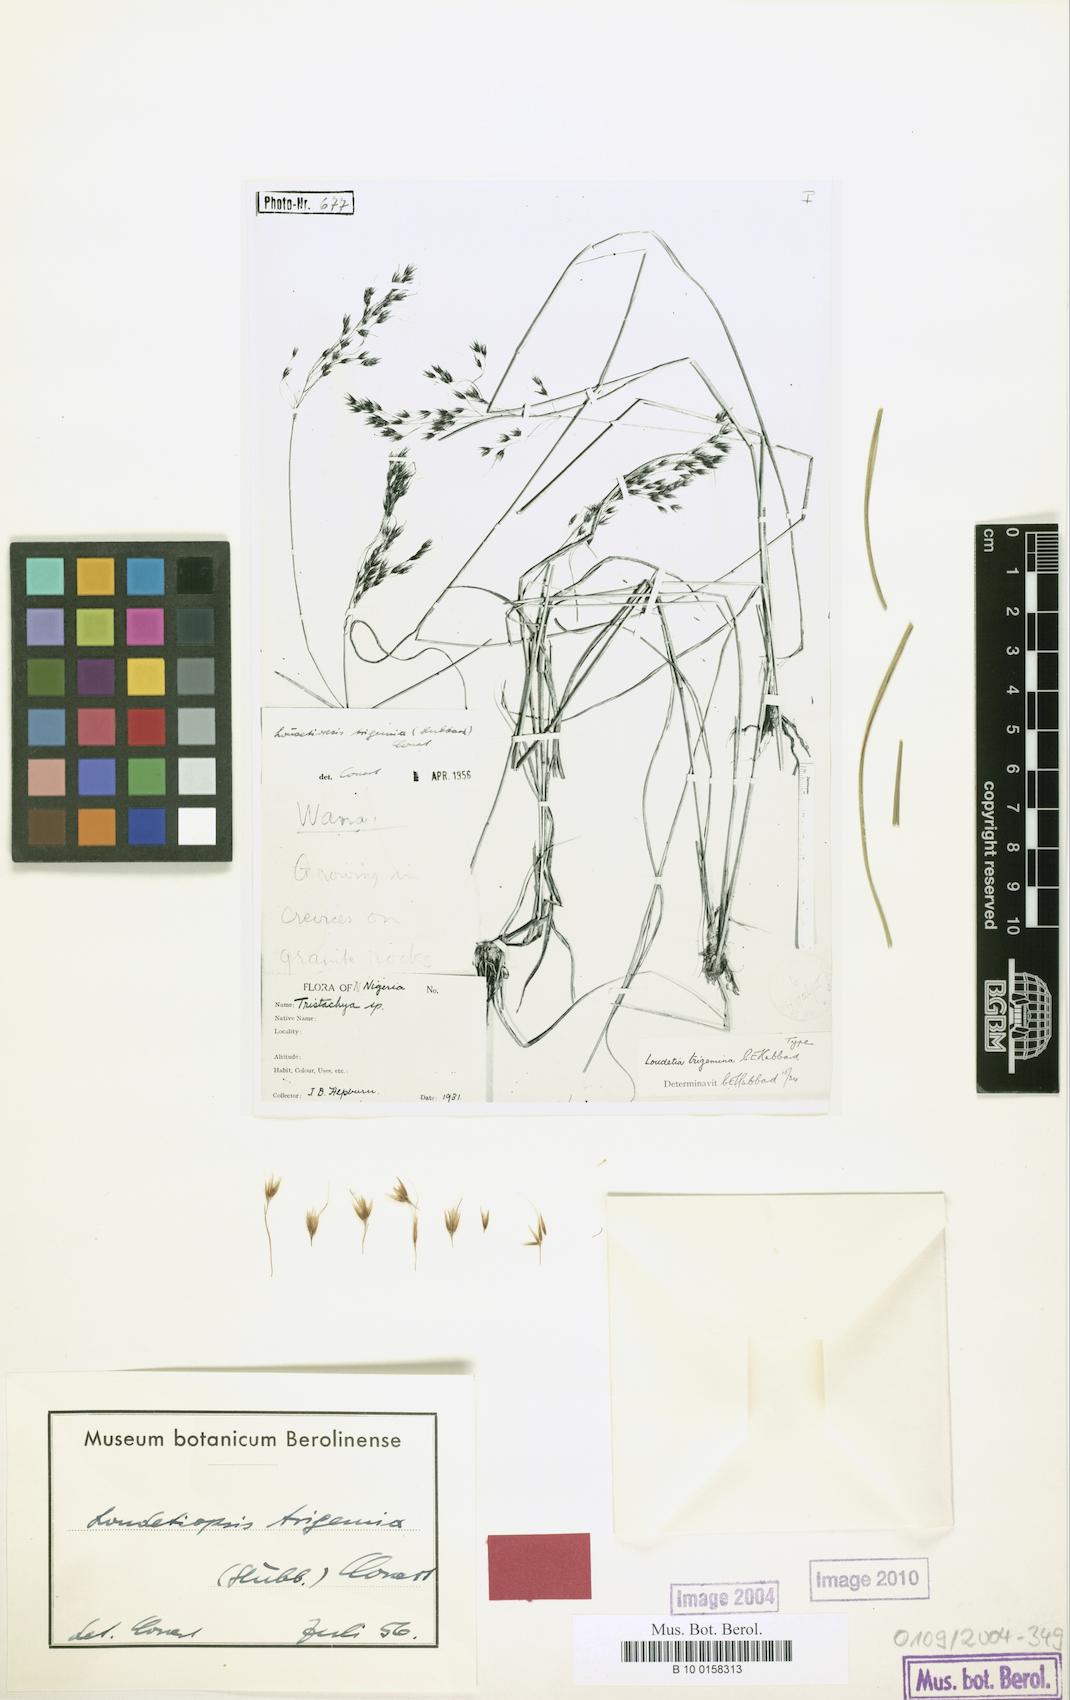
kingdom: Plantae
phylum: Tracheophyta
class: Liliopsida
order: Poales
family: Poaceae
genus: Loudetiopsis
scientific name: Loudetiopsis trigemina
